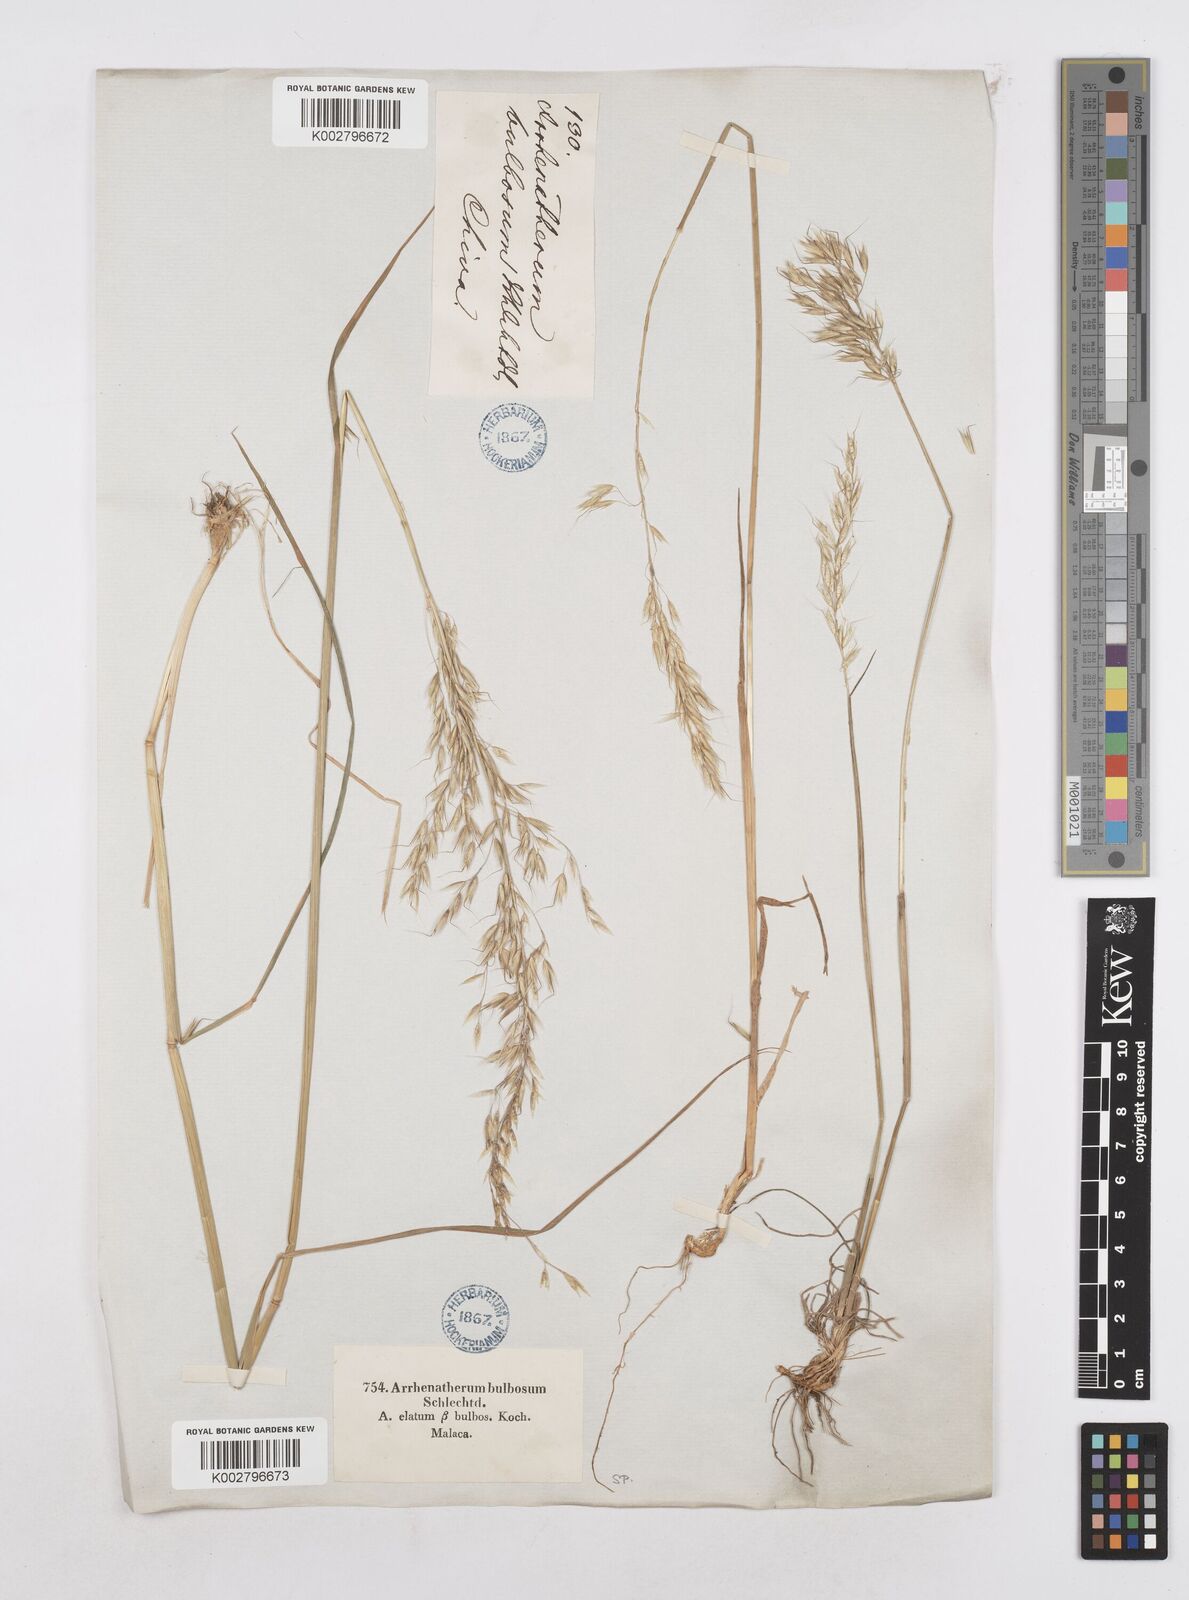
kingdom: Plantae
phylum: Tracheophyta
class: Liliopsida
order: Poales
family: Poaceae
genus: Arrhenatherum
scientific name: Arrhenatherum elatius
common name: Tall oatgrass
